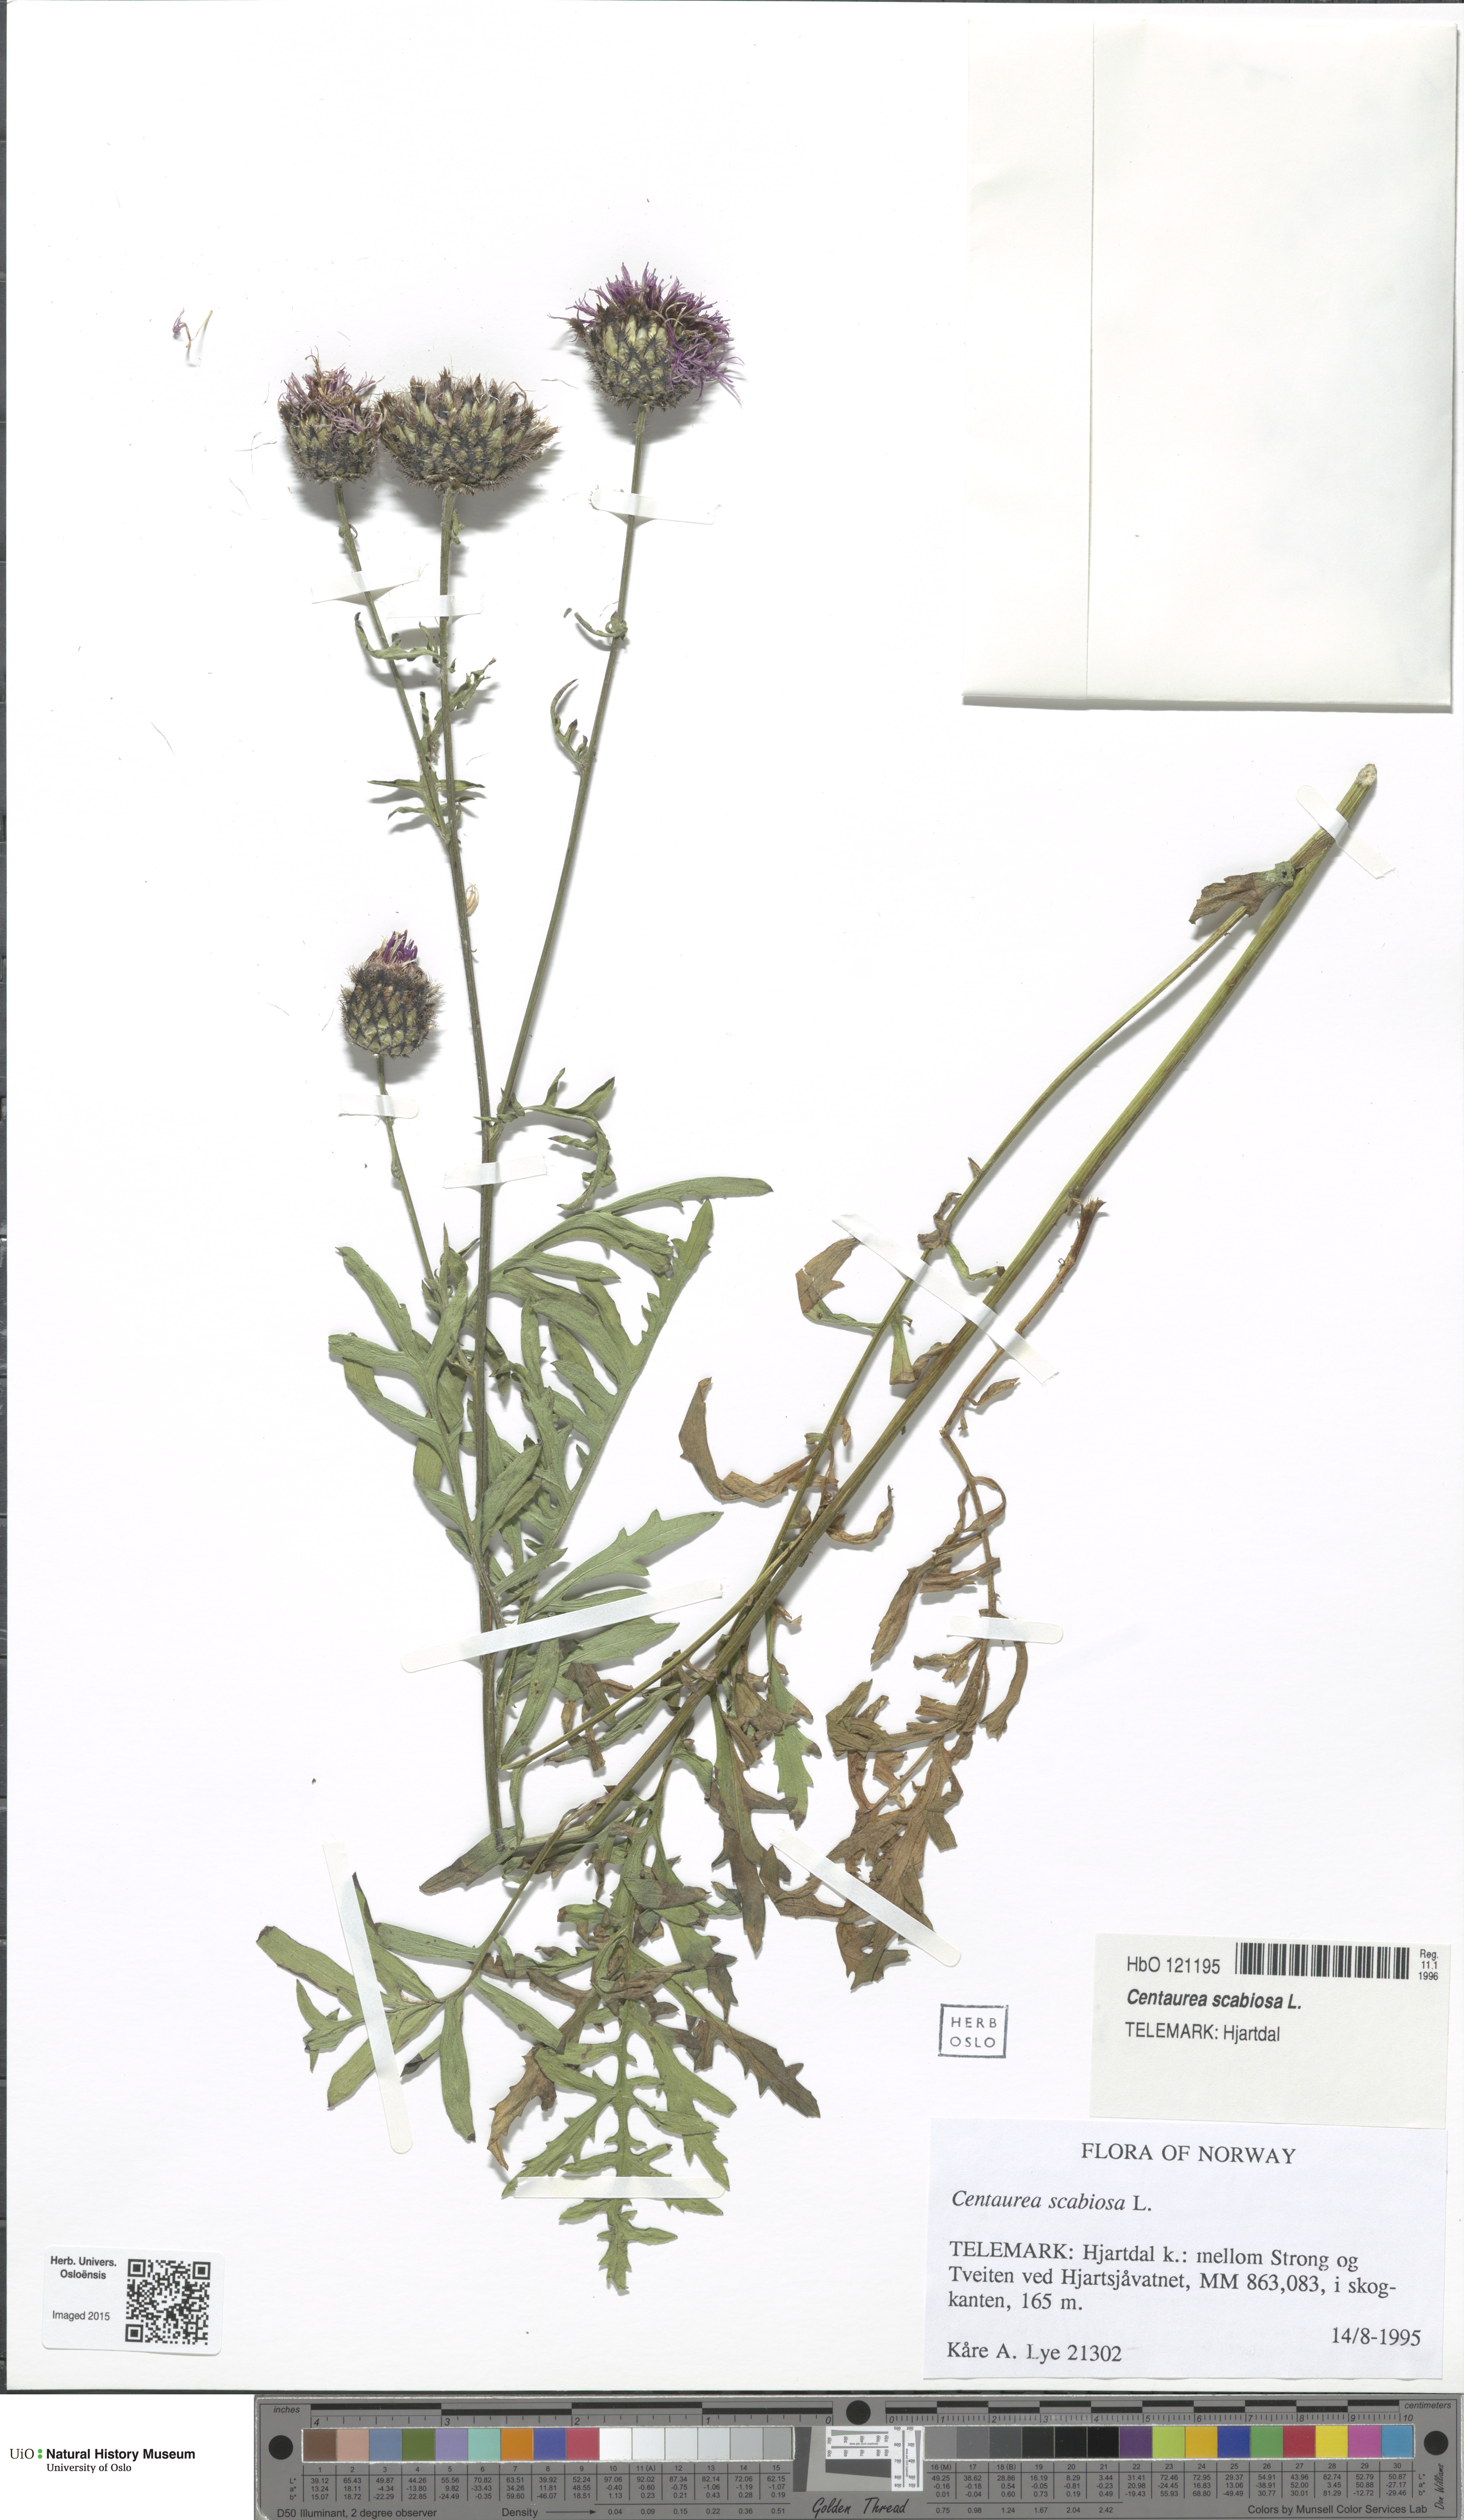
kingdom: Plantae
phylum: Tracheophyta
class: Magnoliopsida
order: Asterales
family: Asteraceae
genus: Centaurea
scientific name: Centaurea scabiosa
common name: Greater knapweed
